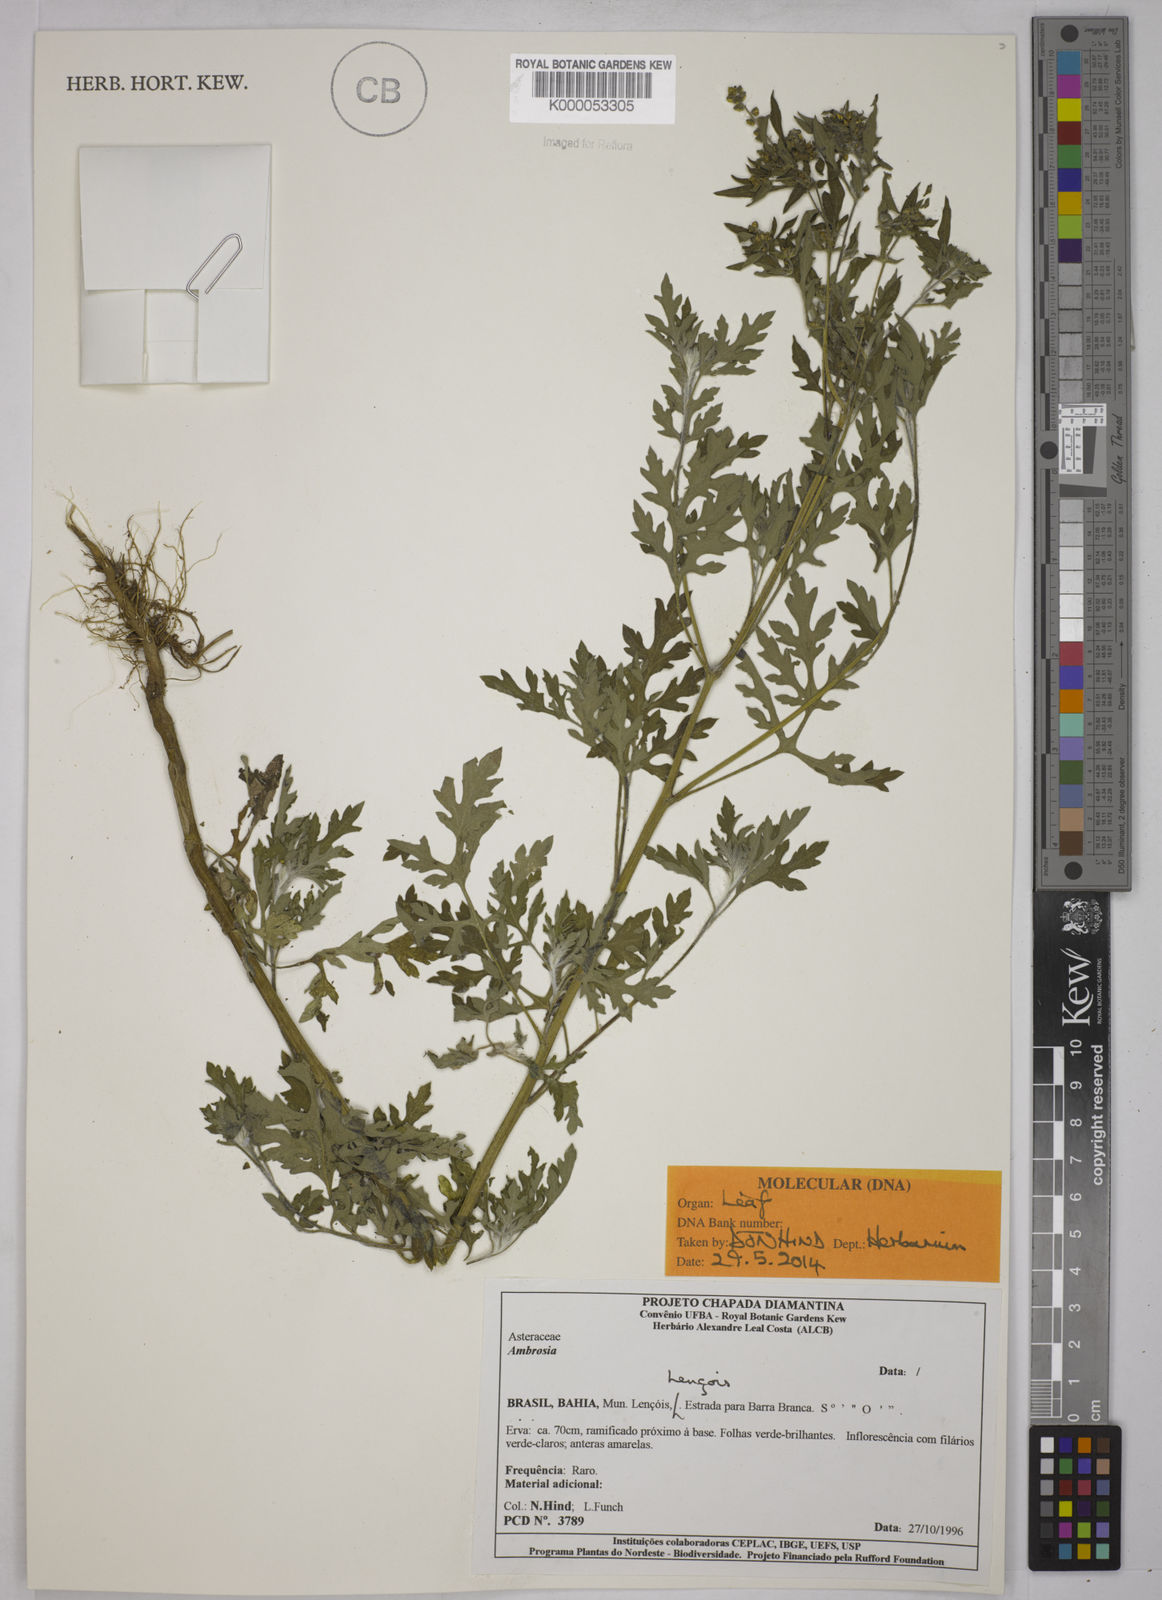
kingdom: Plantae
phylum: Tracheophyta
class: Magnoliopsida
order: Asterales
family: Asteraceae
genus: Ambrosia
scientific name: Ambrosia maritima
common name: Sea ambrosia
